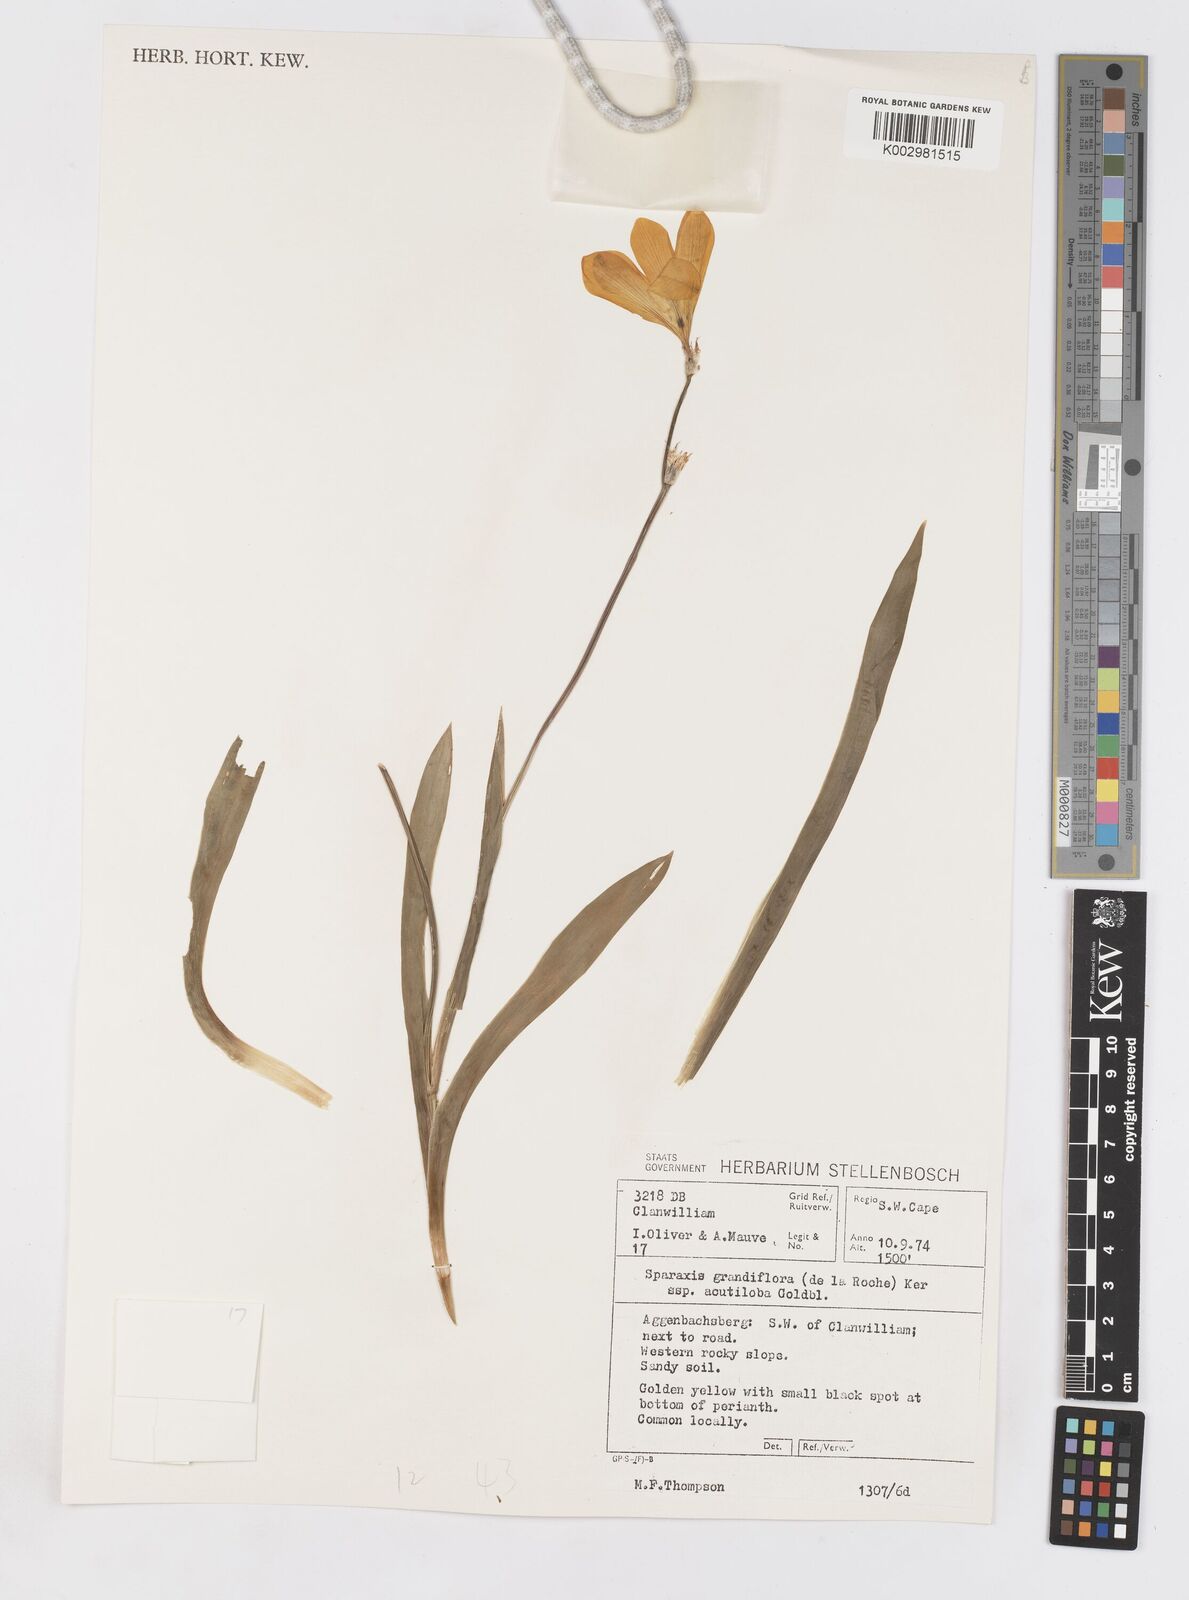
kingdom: Plantae
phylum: Tracheophyta
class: Liliopsida
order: Asparagales
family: Iridaceae
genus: Sparaxis
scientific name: Sparaxis grandiflora
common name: Plain harlequin-flower
